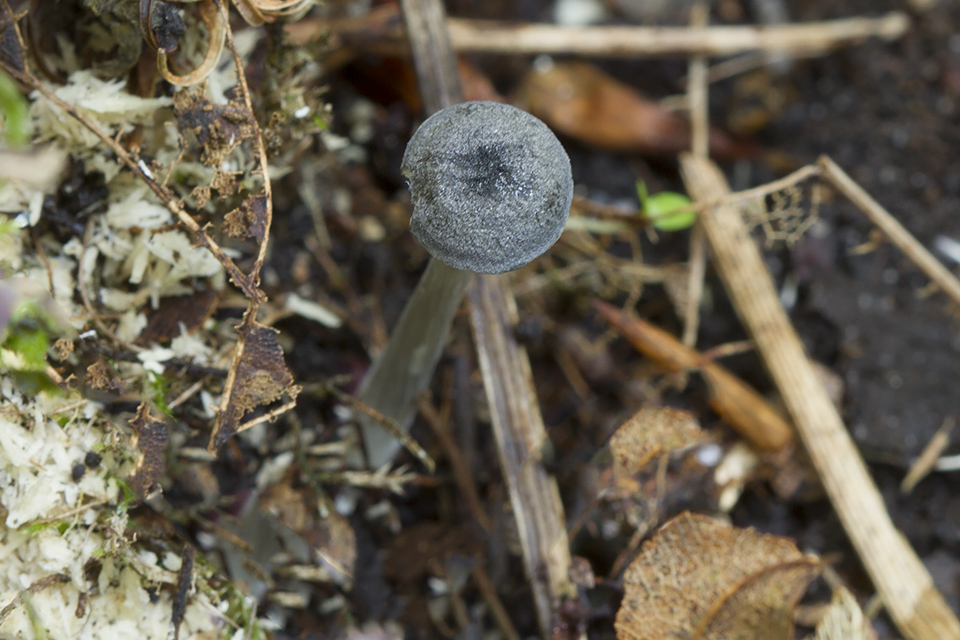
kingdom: Fungi
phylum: Basidiomycota
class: Agaricomycetes
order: Agaricales
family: Entolomataceae
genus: Entoloma
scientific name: Entoloma violaceoserrulatum
